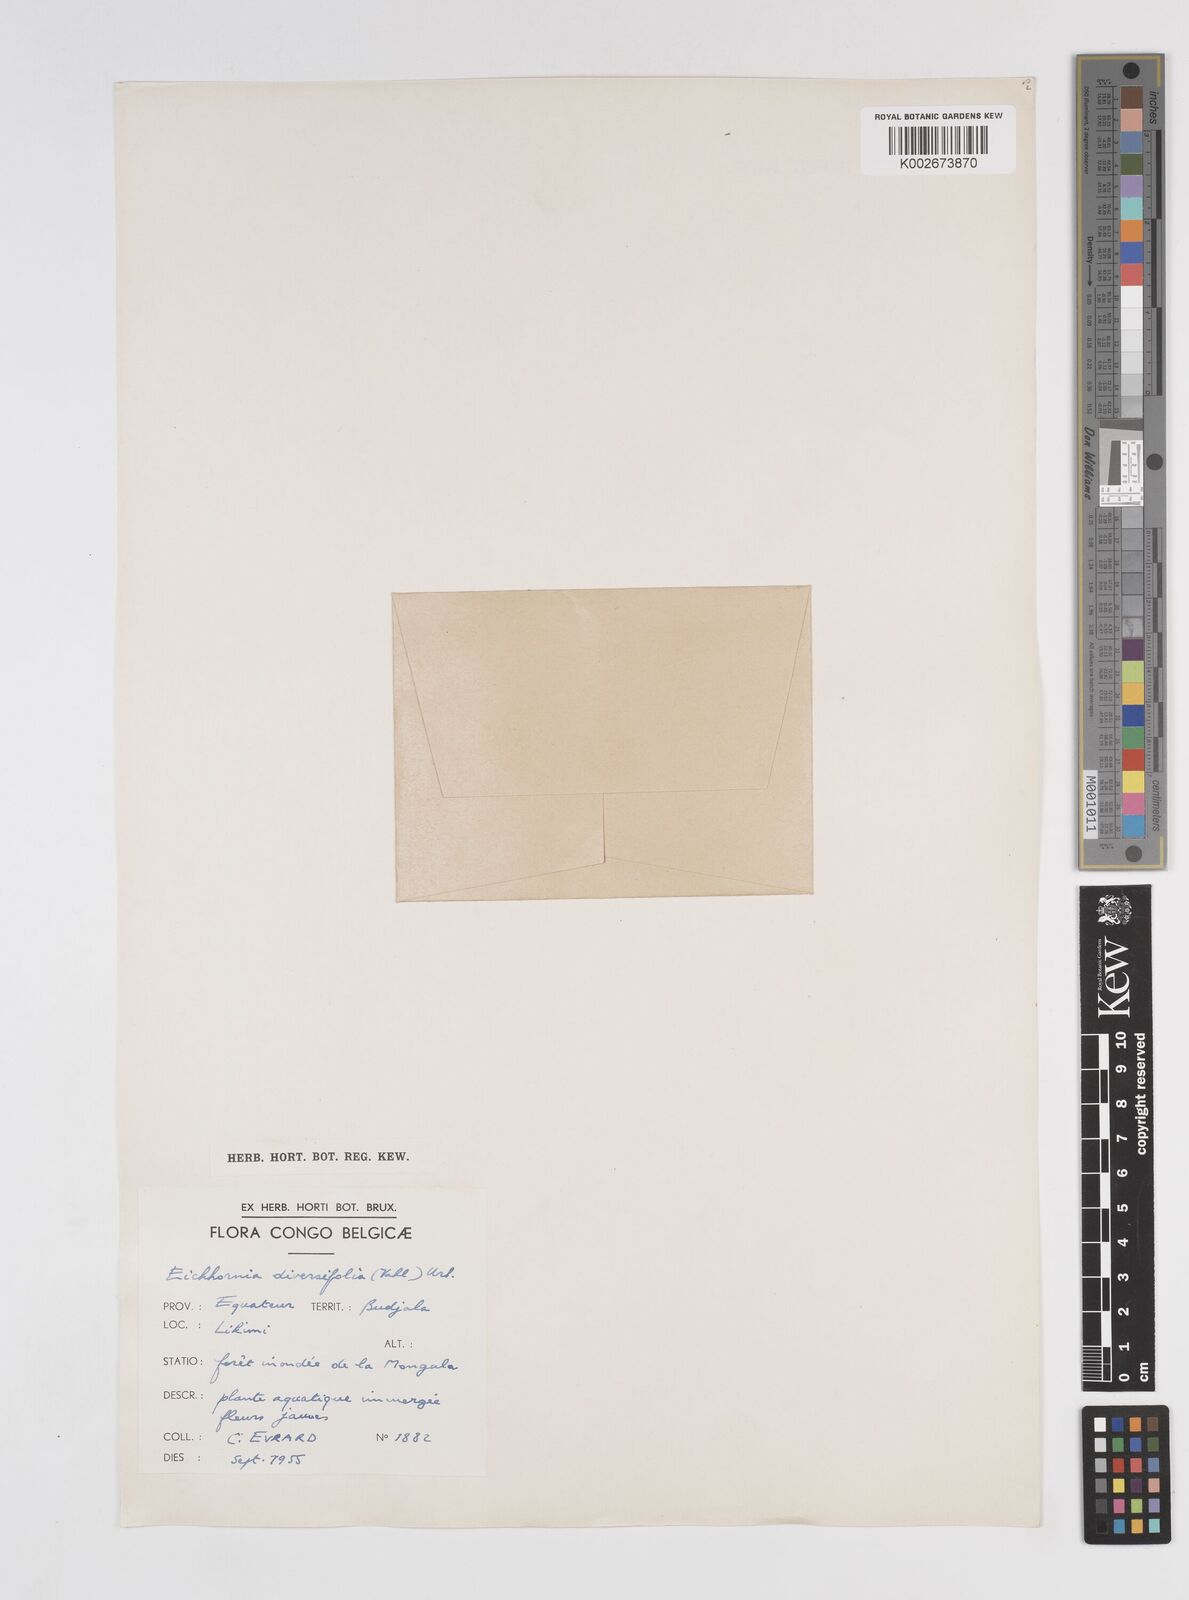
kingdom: Plantae
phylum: Tracheophyta
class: Liliopsida
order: Commelinales
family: Pontederiaceae
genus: Pontederia
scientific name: Pontederia natans
